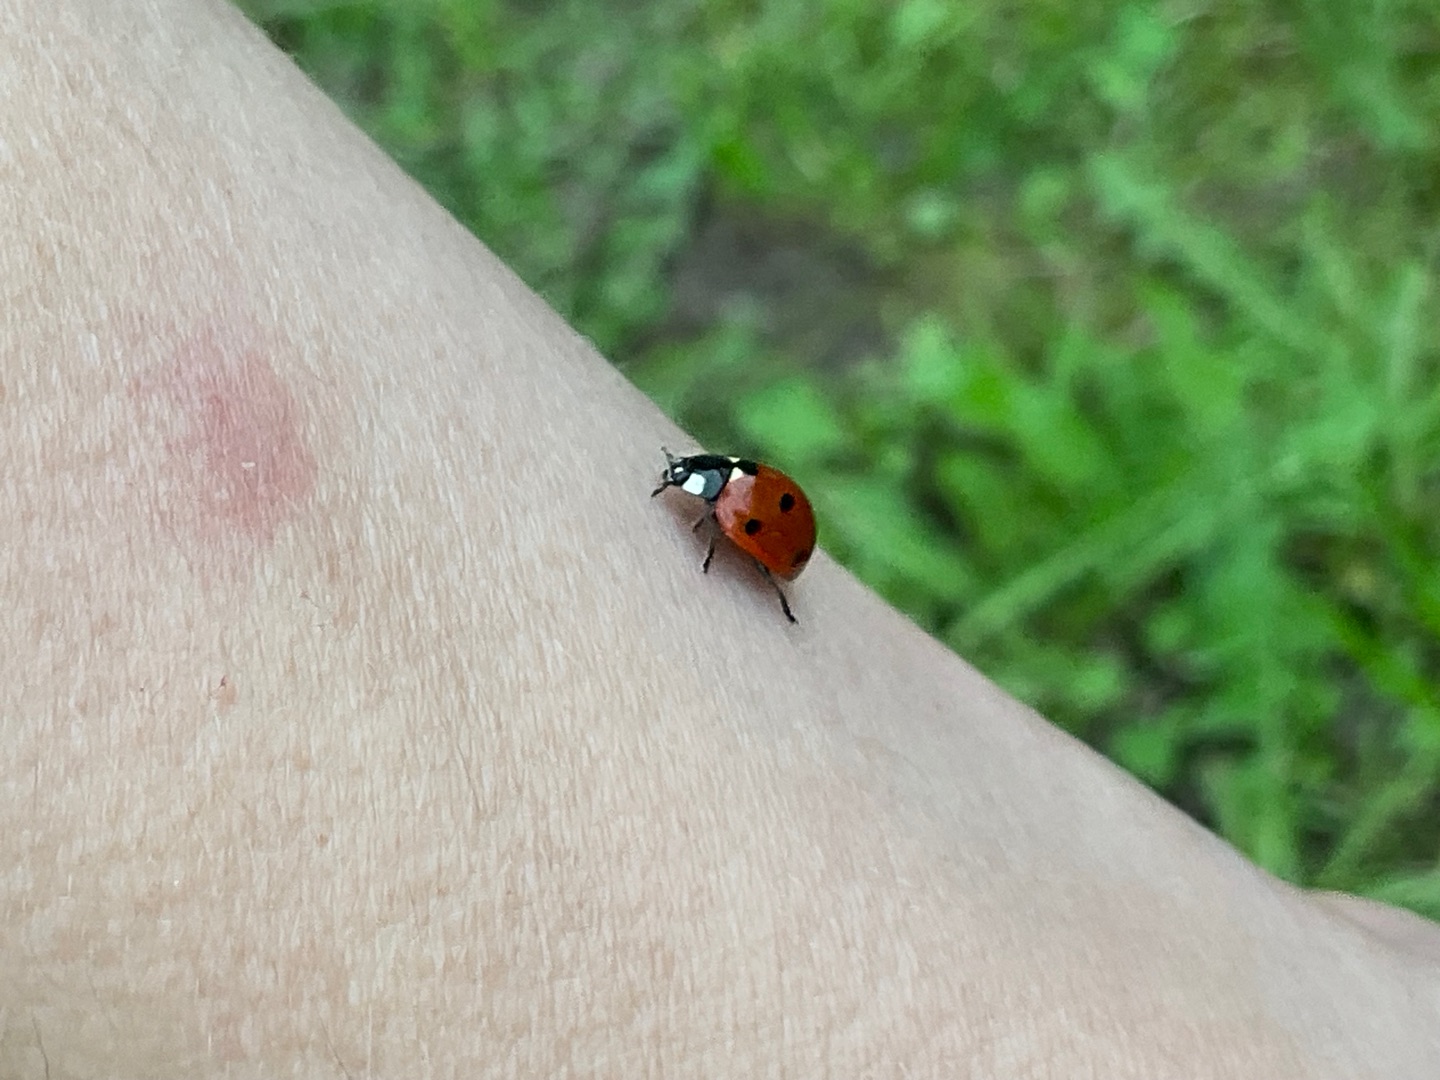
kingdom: Animalia
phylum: Arthropoda
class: Insecta
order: Coleoptera
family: Coccinellidae
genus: Coccinella
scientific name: Coccinella septempunctata
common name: Syvplettet mariehøne
